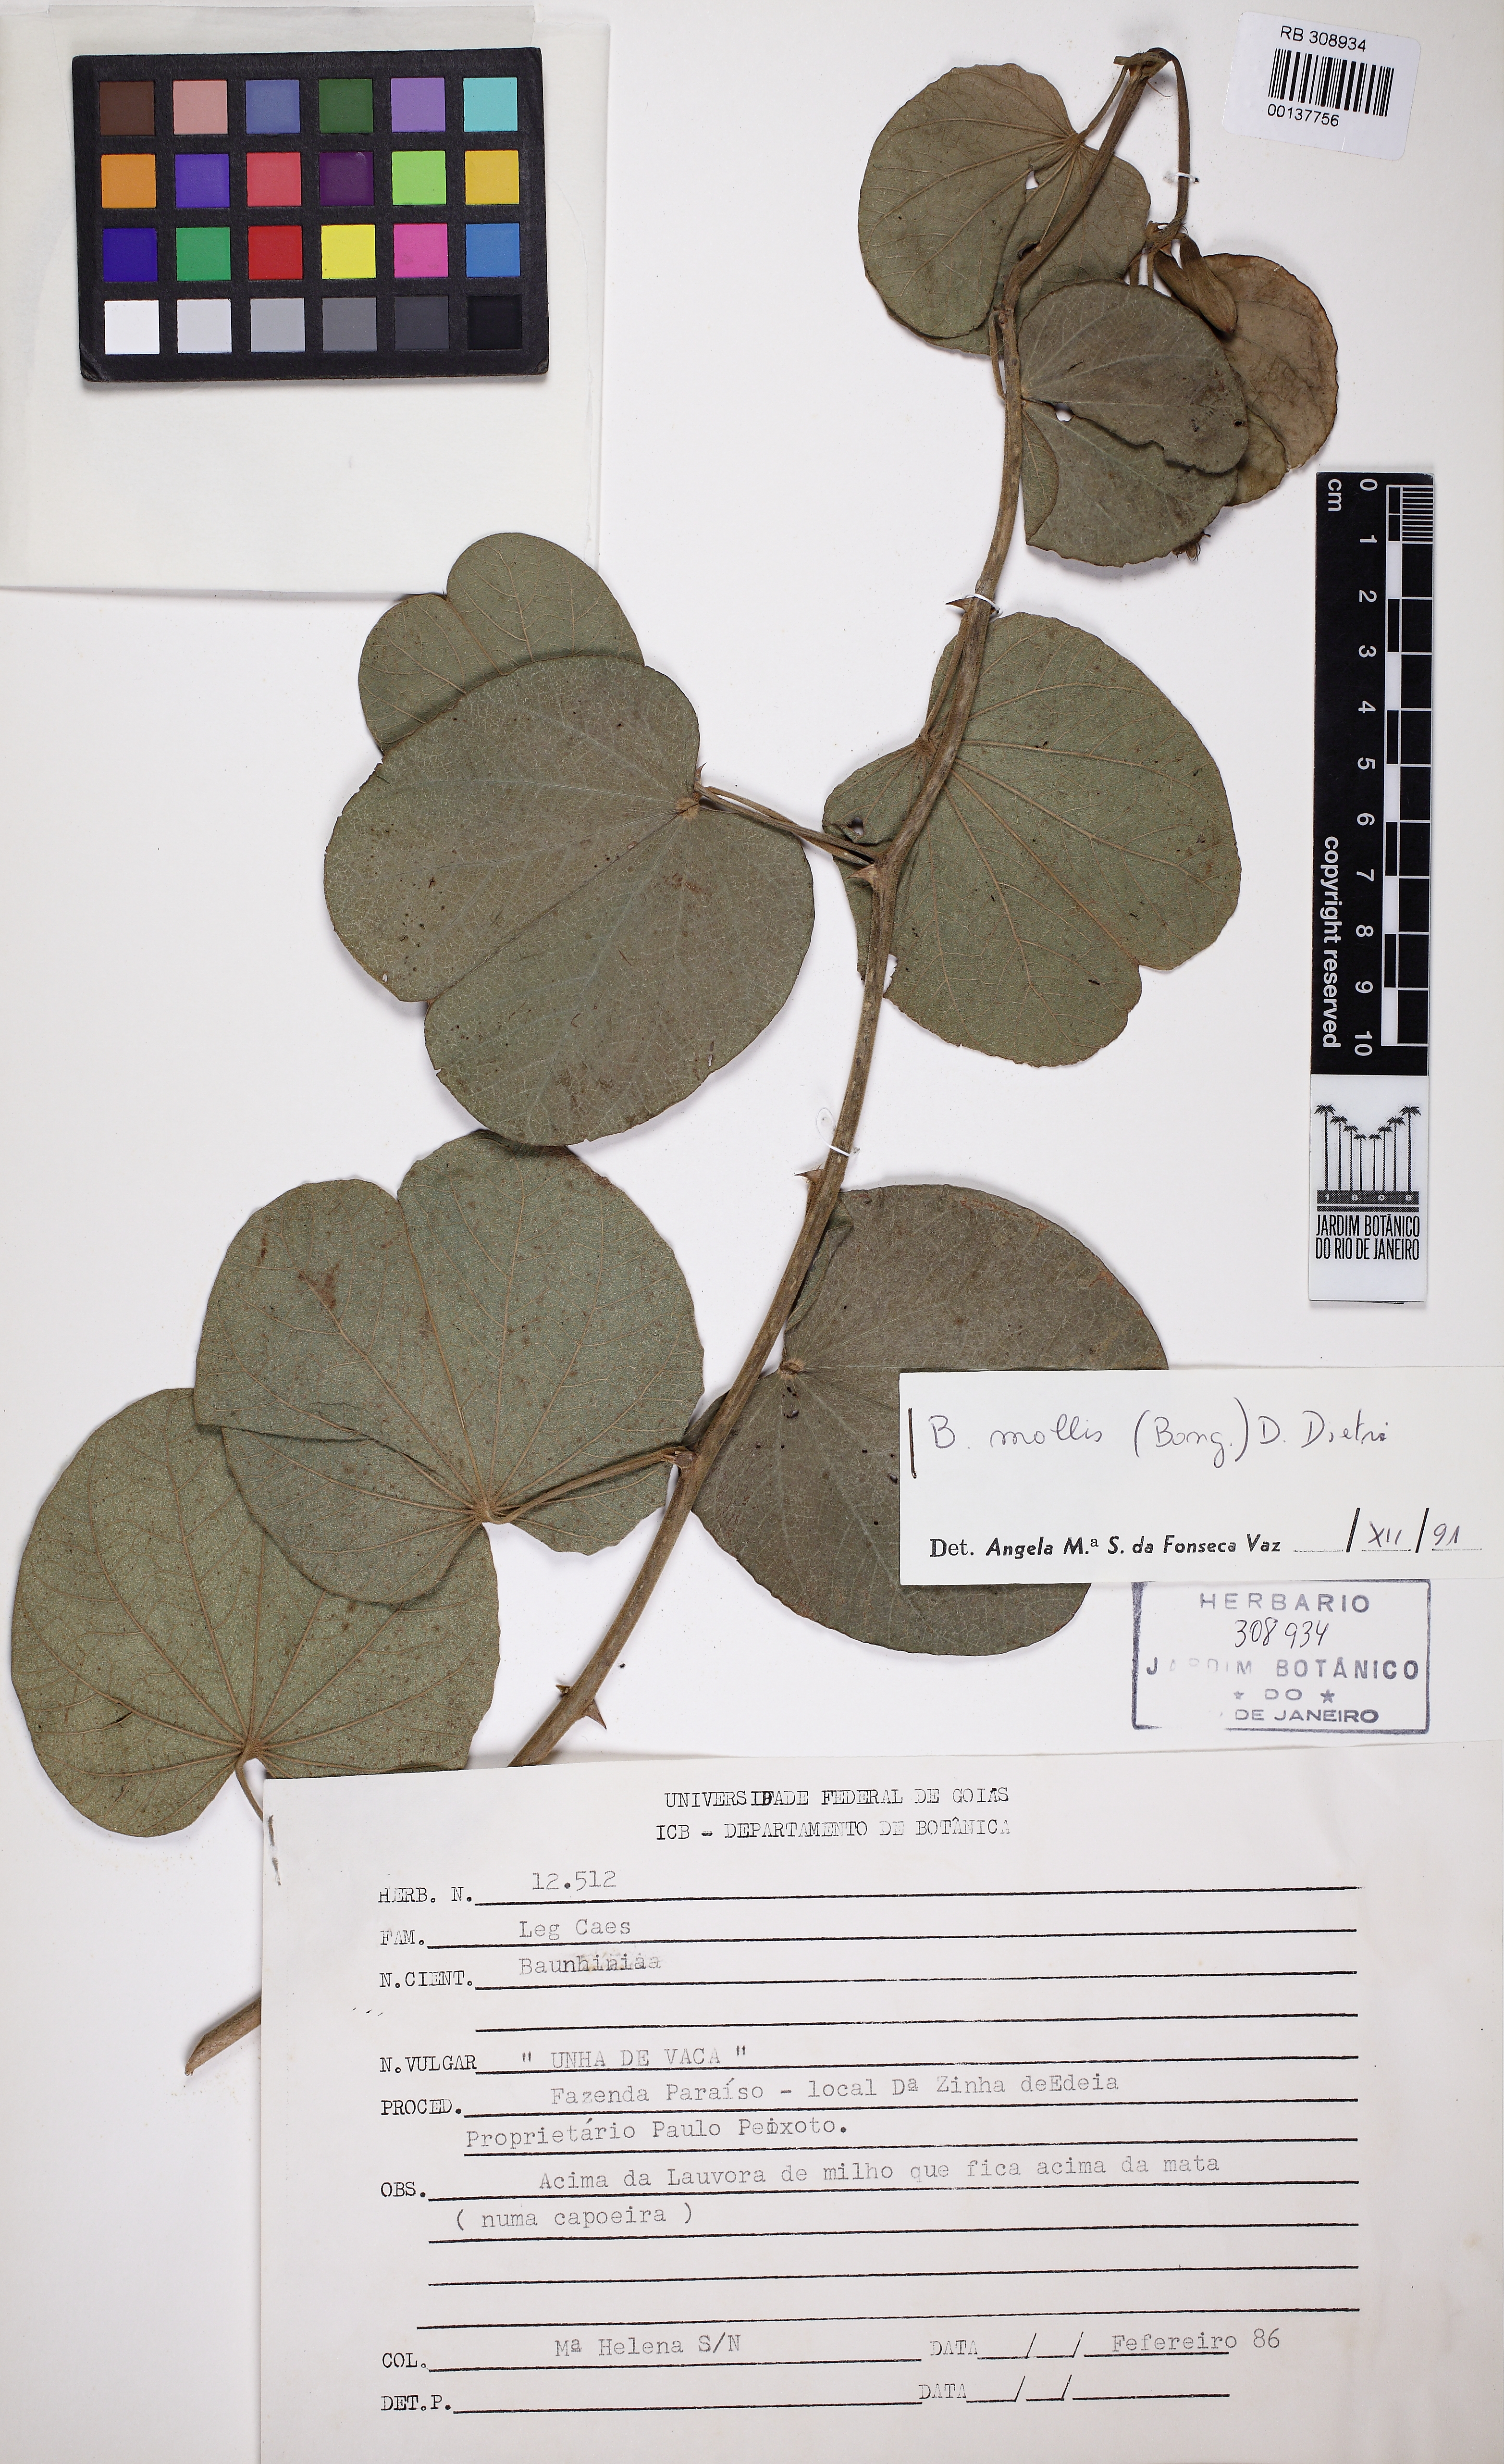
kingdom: Plantae
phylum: Tracheophyta
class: Magnoliopsida
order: Fabales
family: Fabaceae
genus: Bauhinia
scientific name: Bauhinia mollis
